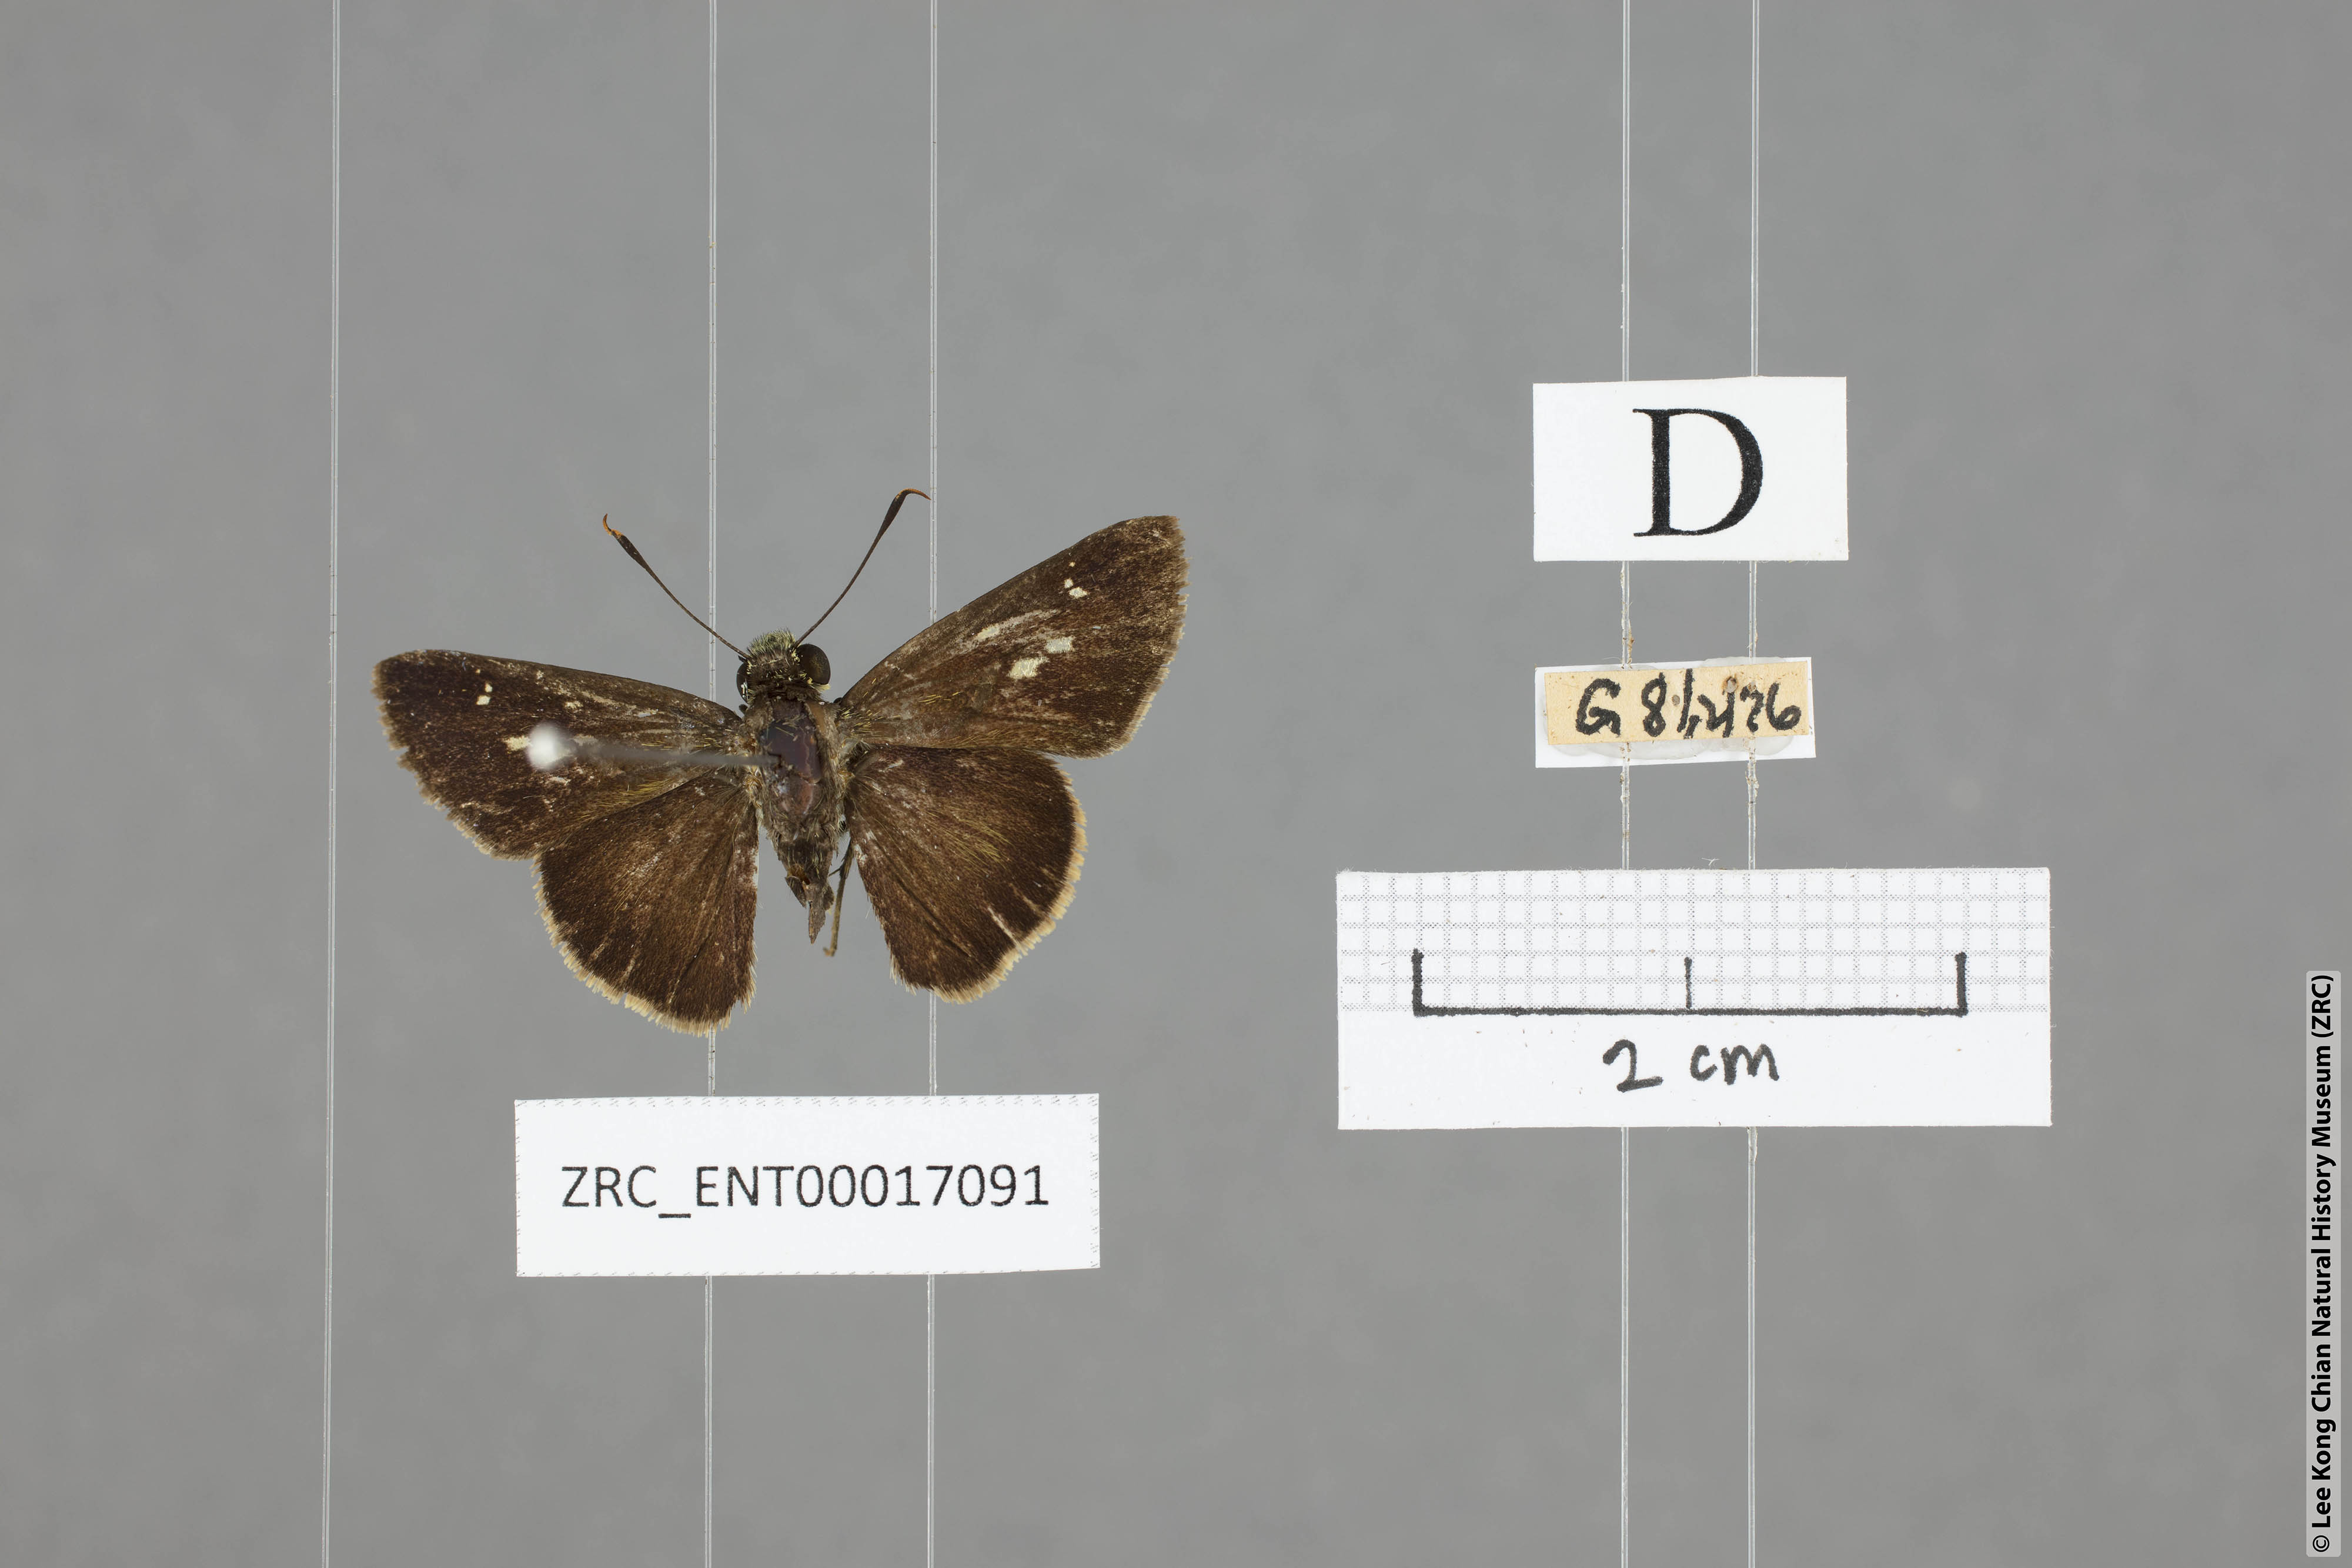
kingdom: Animalia
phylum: Arthropoda
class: Insecta
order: Lepidoptera
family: Hesperiidae
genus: Halpe
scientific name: Halpe wantona
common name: Swinhoe's ace
